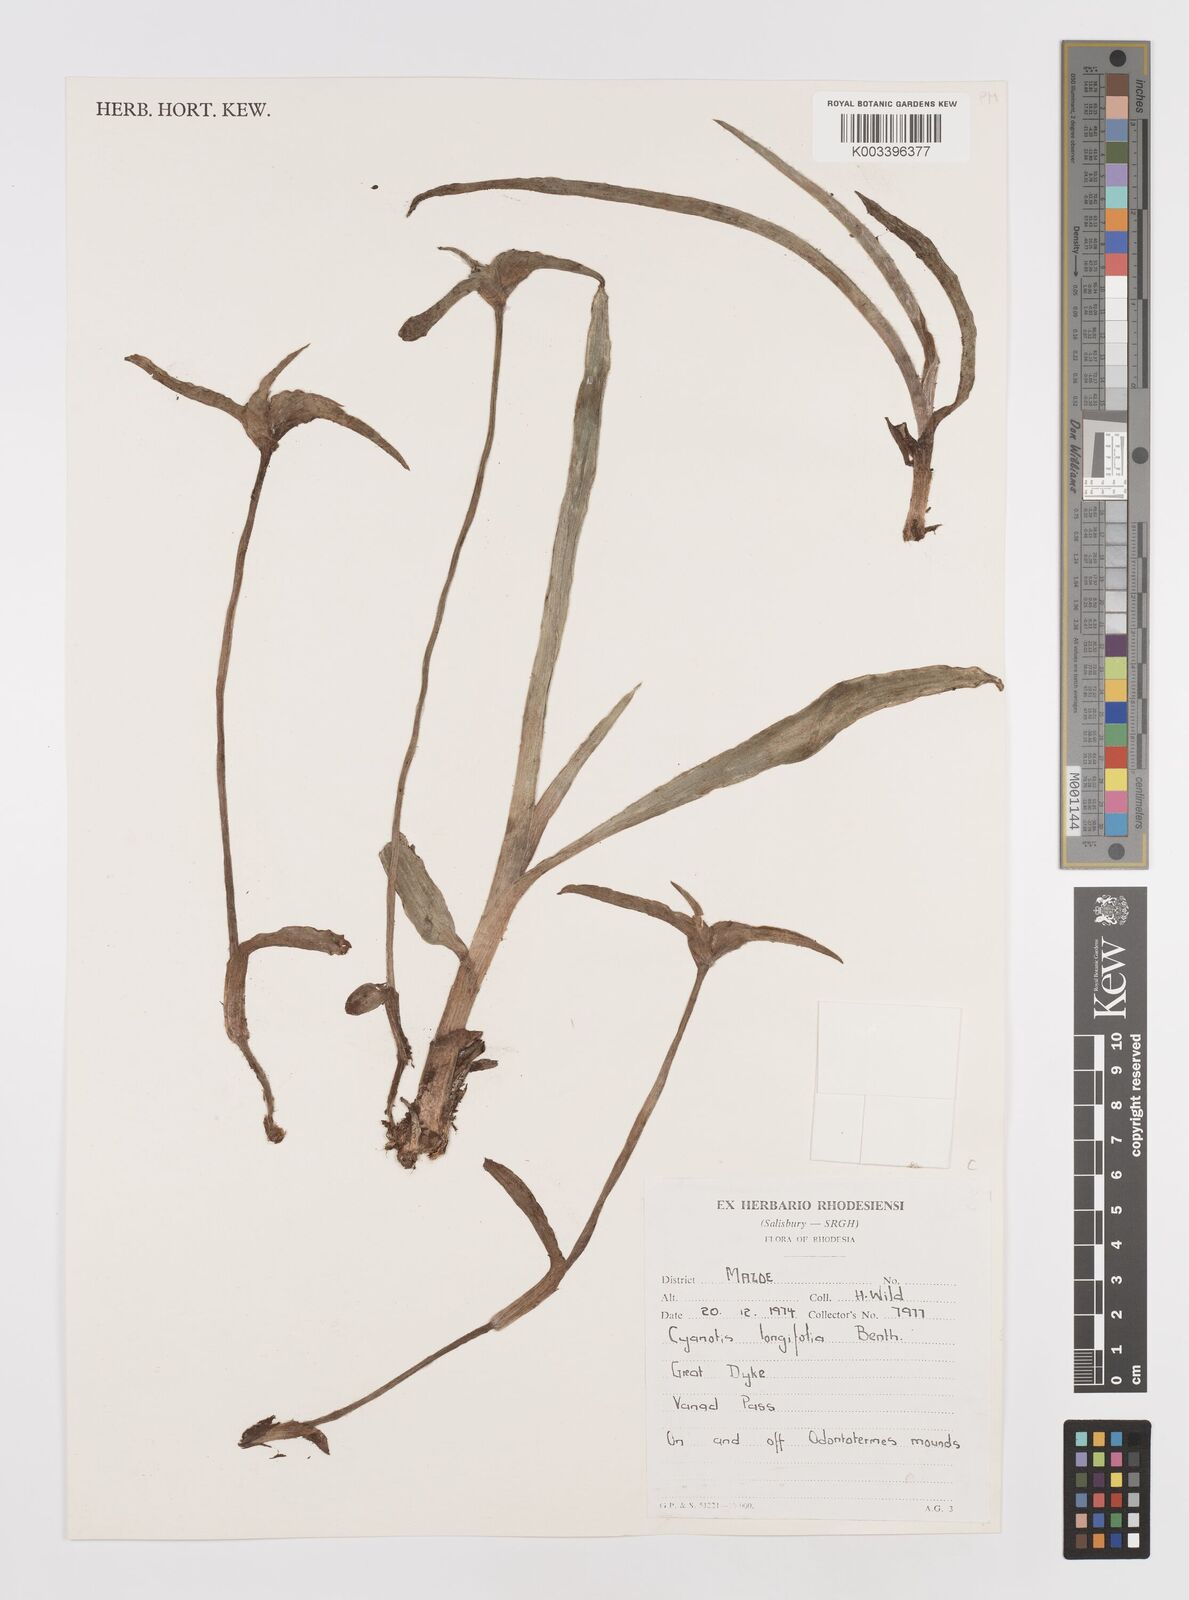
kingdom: Plantae
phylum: Tracheophyta
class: Liliopsida
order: Commelinales
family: Commelinaceae
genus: Cyanotis
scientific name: Cyanotis longifolia
